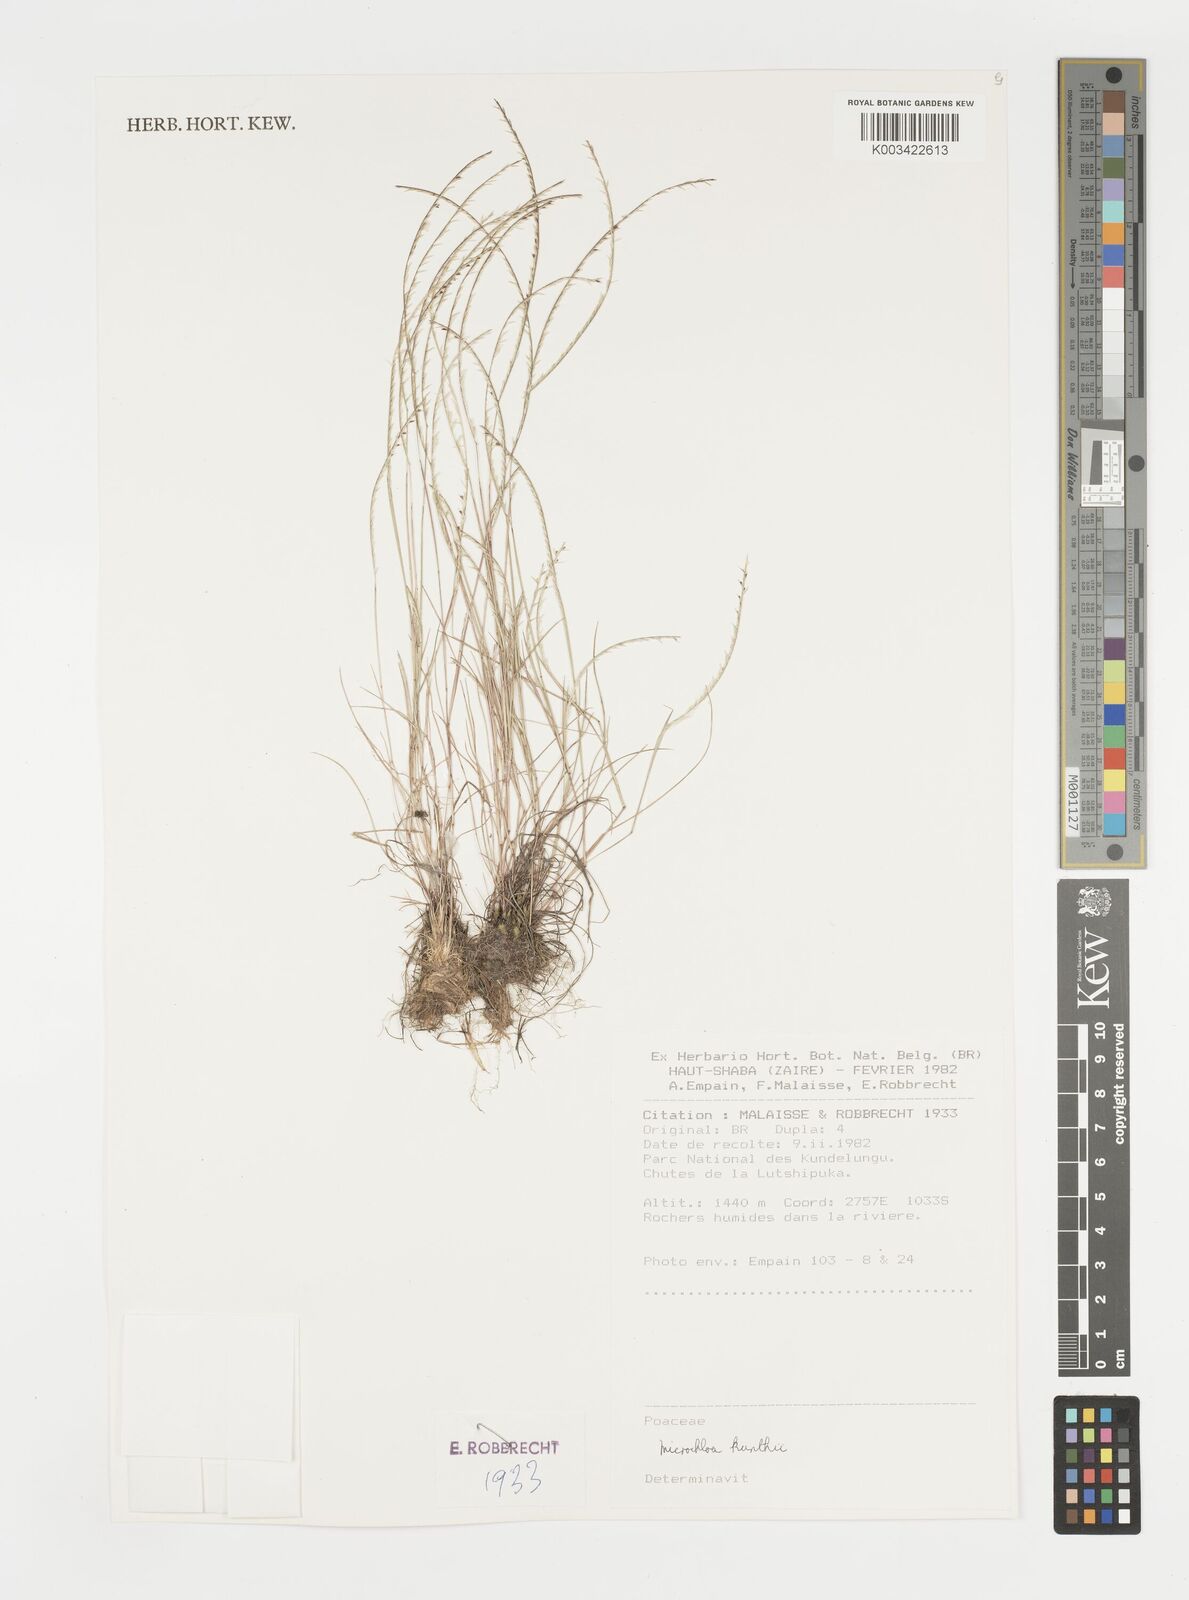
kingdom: Plantae
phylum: Tracheophyta
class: Liliopsida
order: Poales
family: Poaceae
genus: Microchloa
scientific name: Microchloa kunthii
